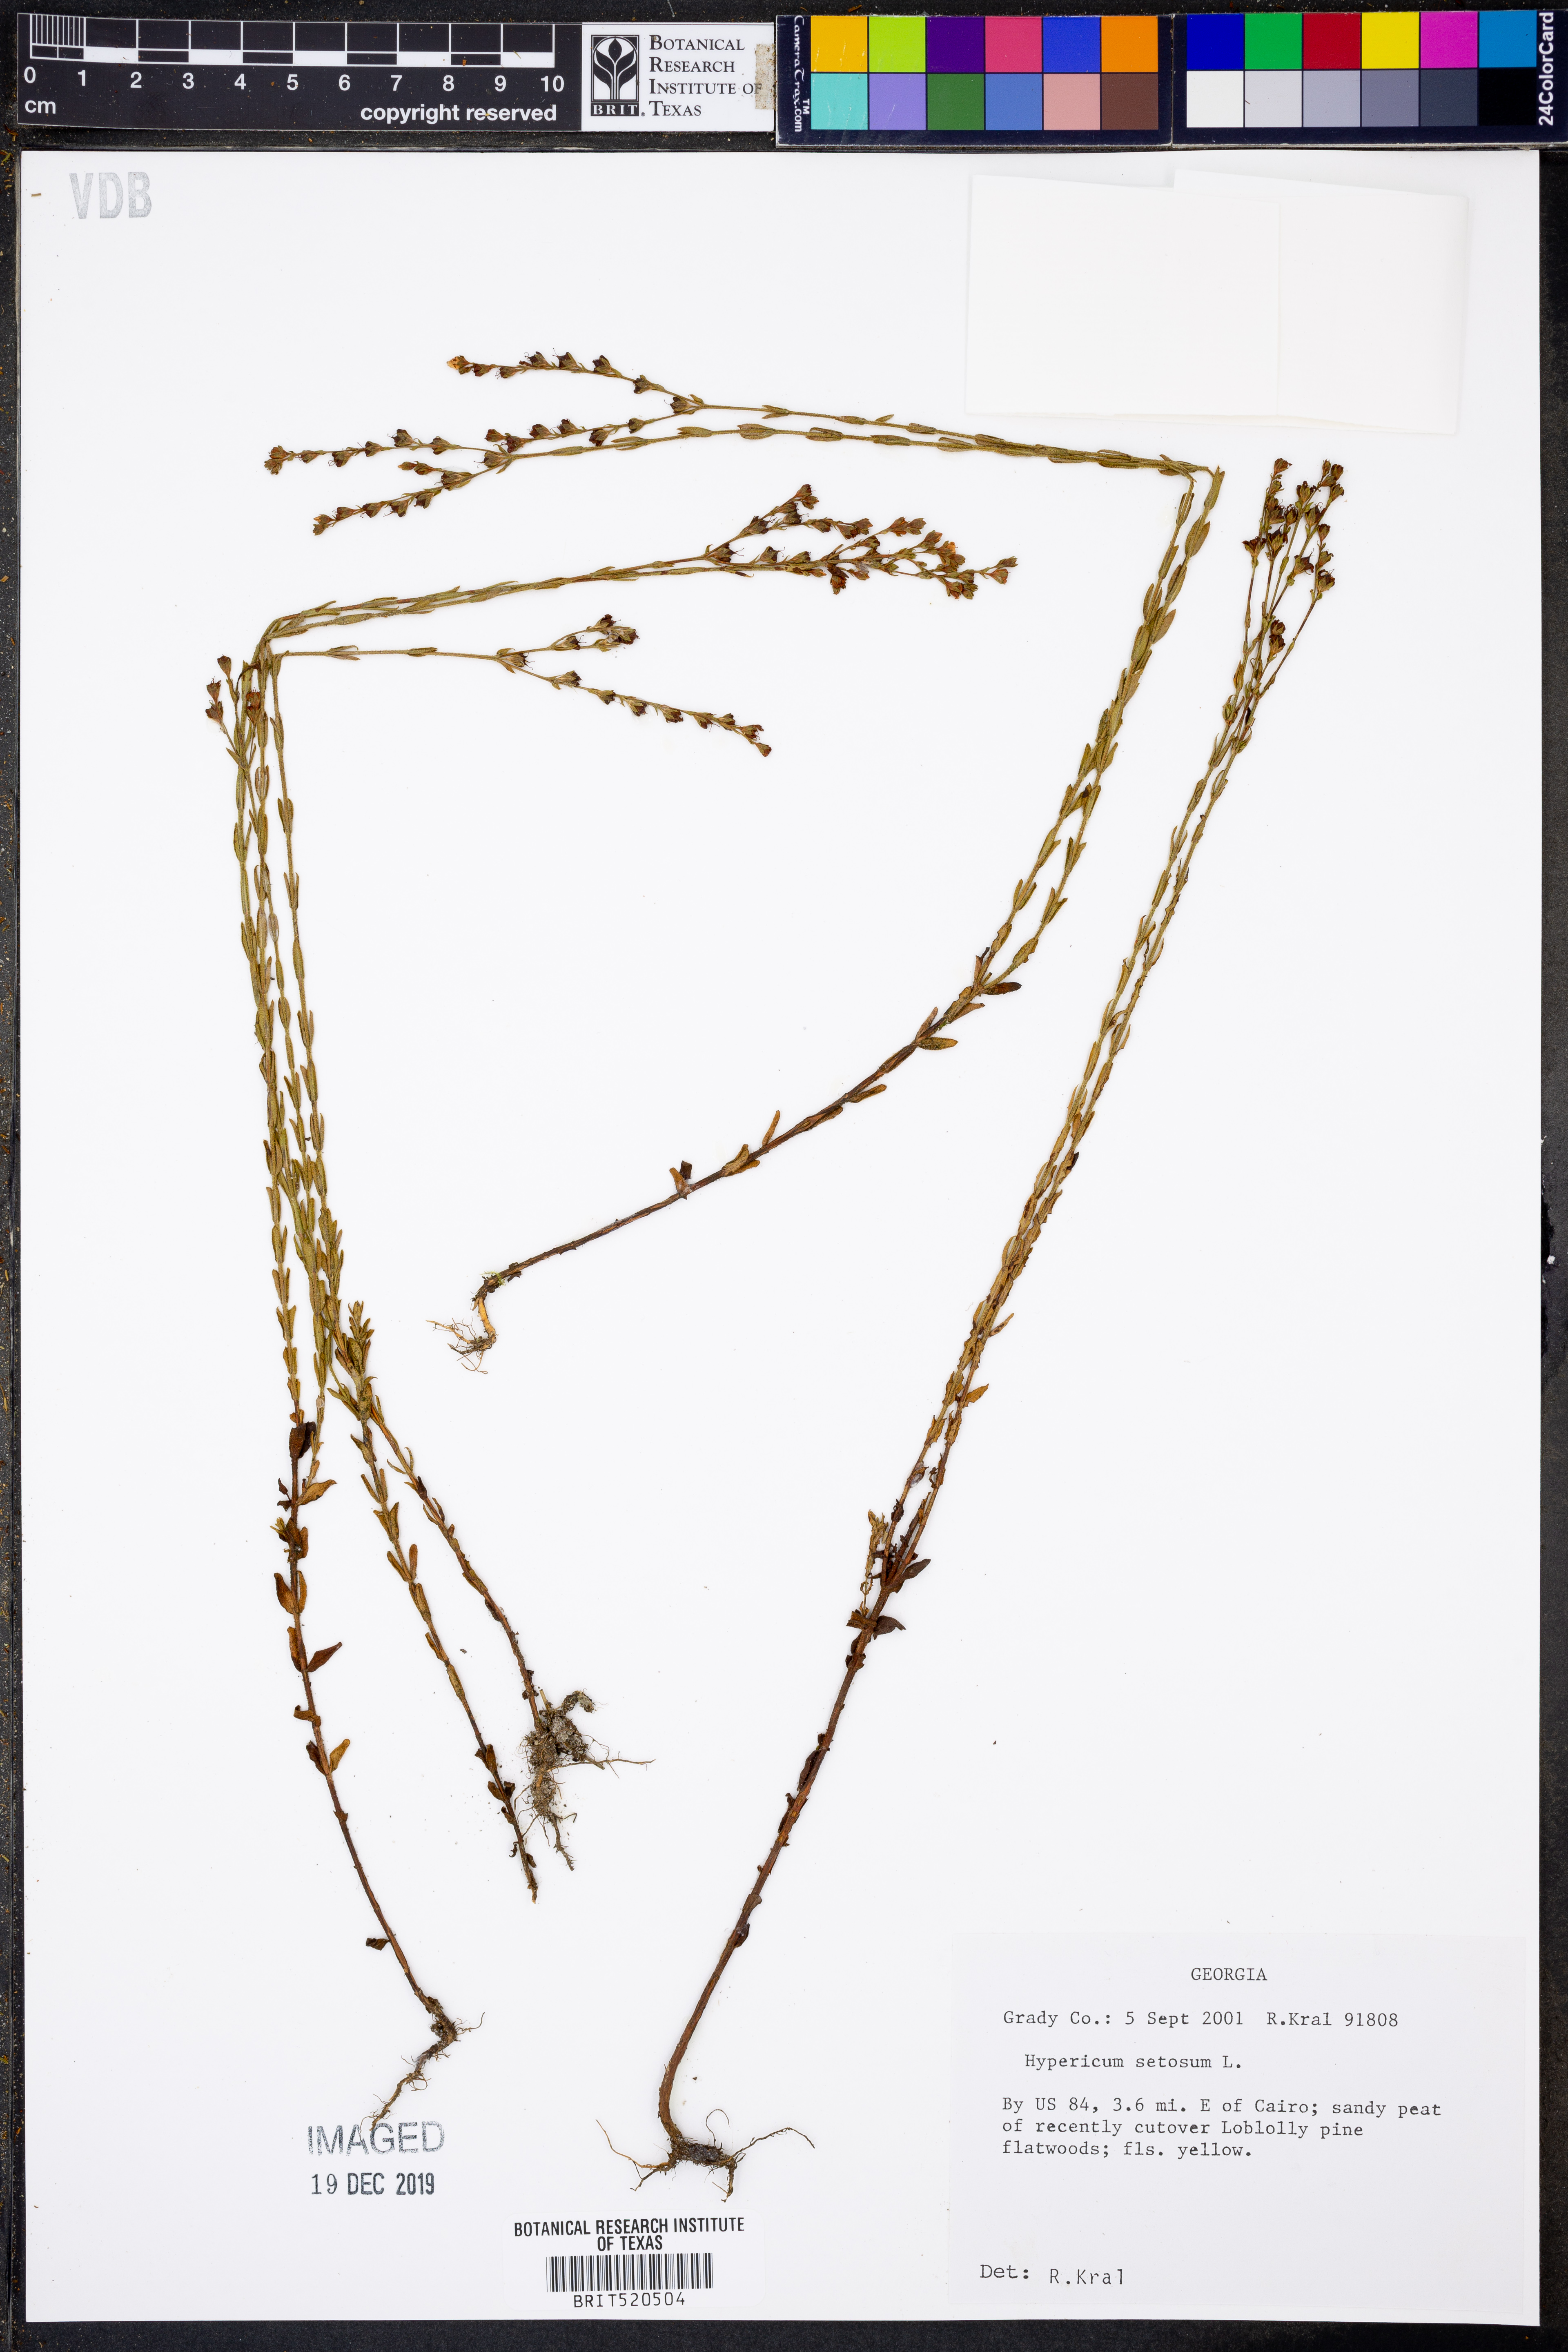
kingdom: Plantae
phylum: Tracheophyta
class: Magnoliopsida
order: Malpighiales
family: Hypericaceae
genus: Hypericum
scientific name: Hypericum setosum
